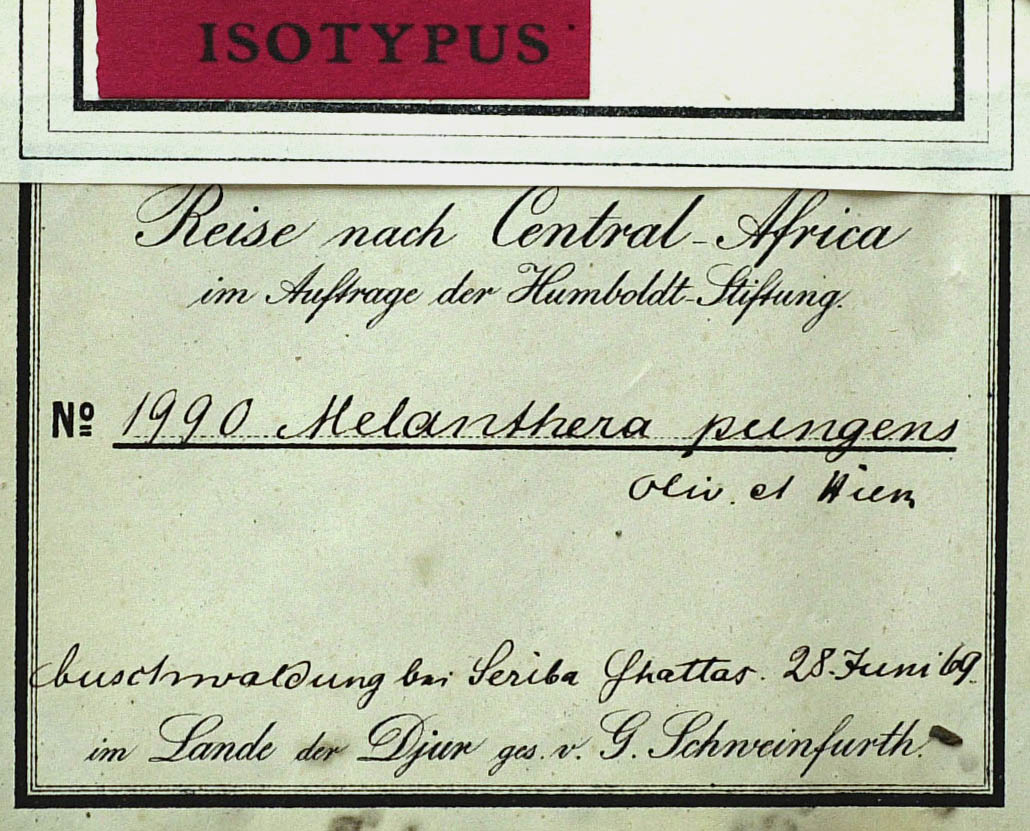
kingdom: Plantae
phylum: Tracheophyta
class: Magnoliopsida
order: Asterales
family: Asteraceae
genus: Lipotriche
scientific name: Lipotriche pungens
